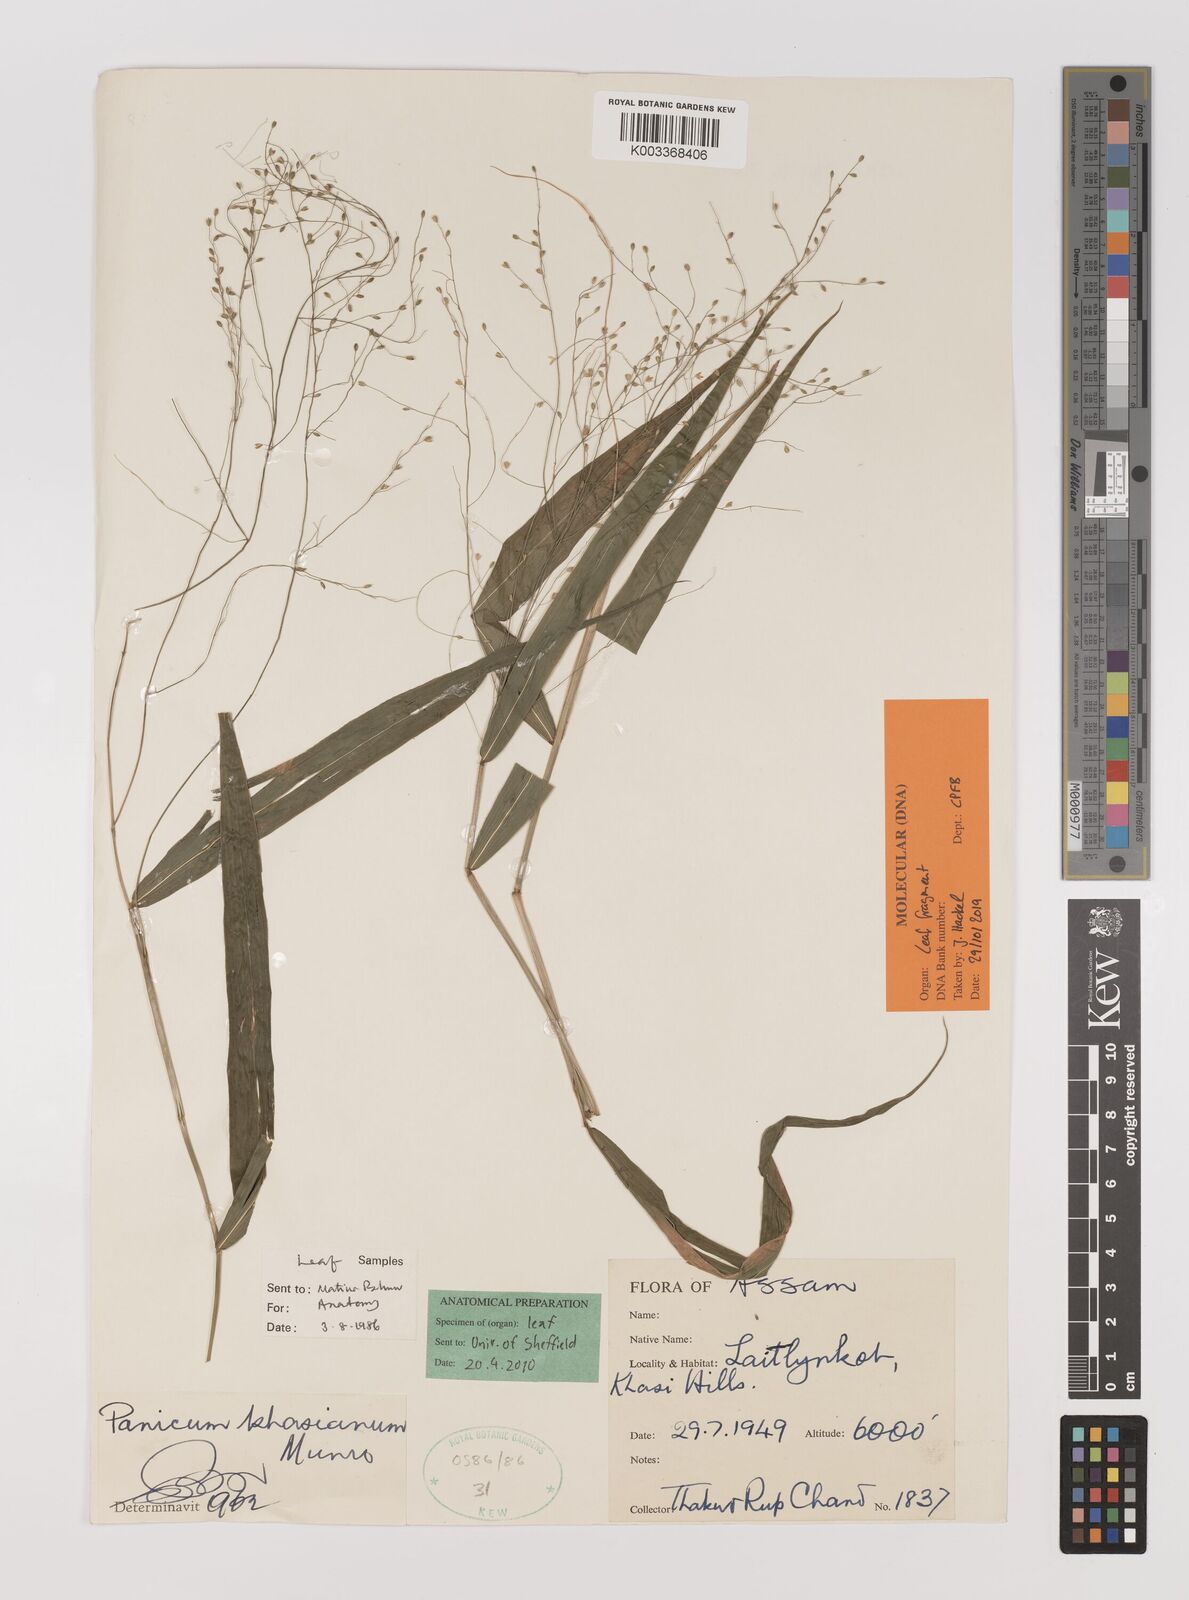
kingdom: Plantae
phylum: Tracheophyta
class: Liliopsida
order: Poales
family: Poaceae
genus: Panicum
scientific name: Panicum khasianum
